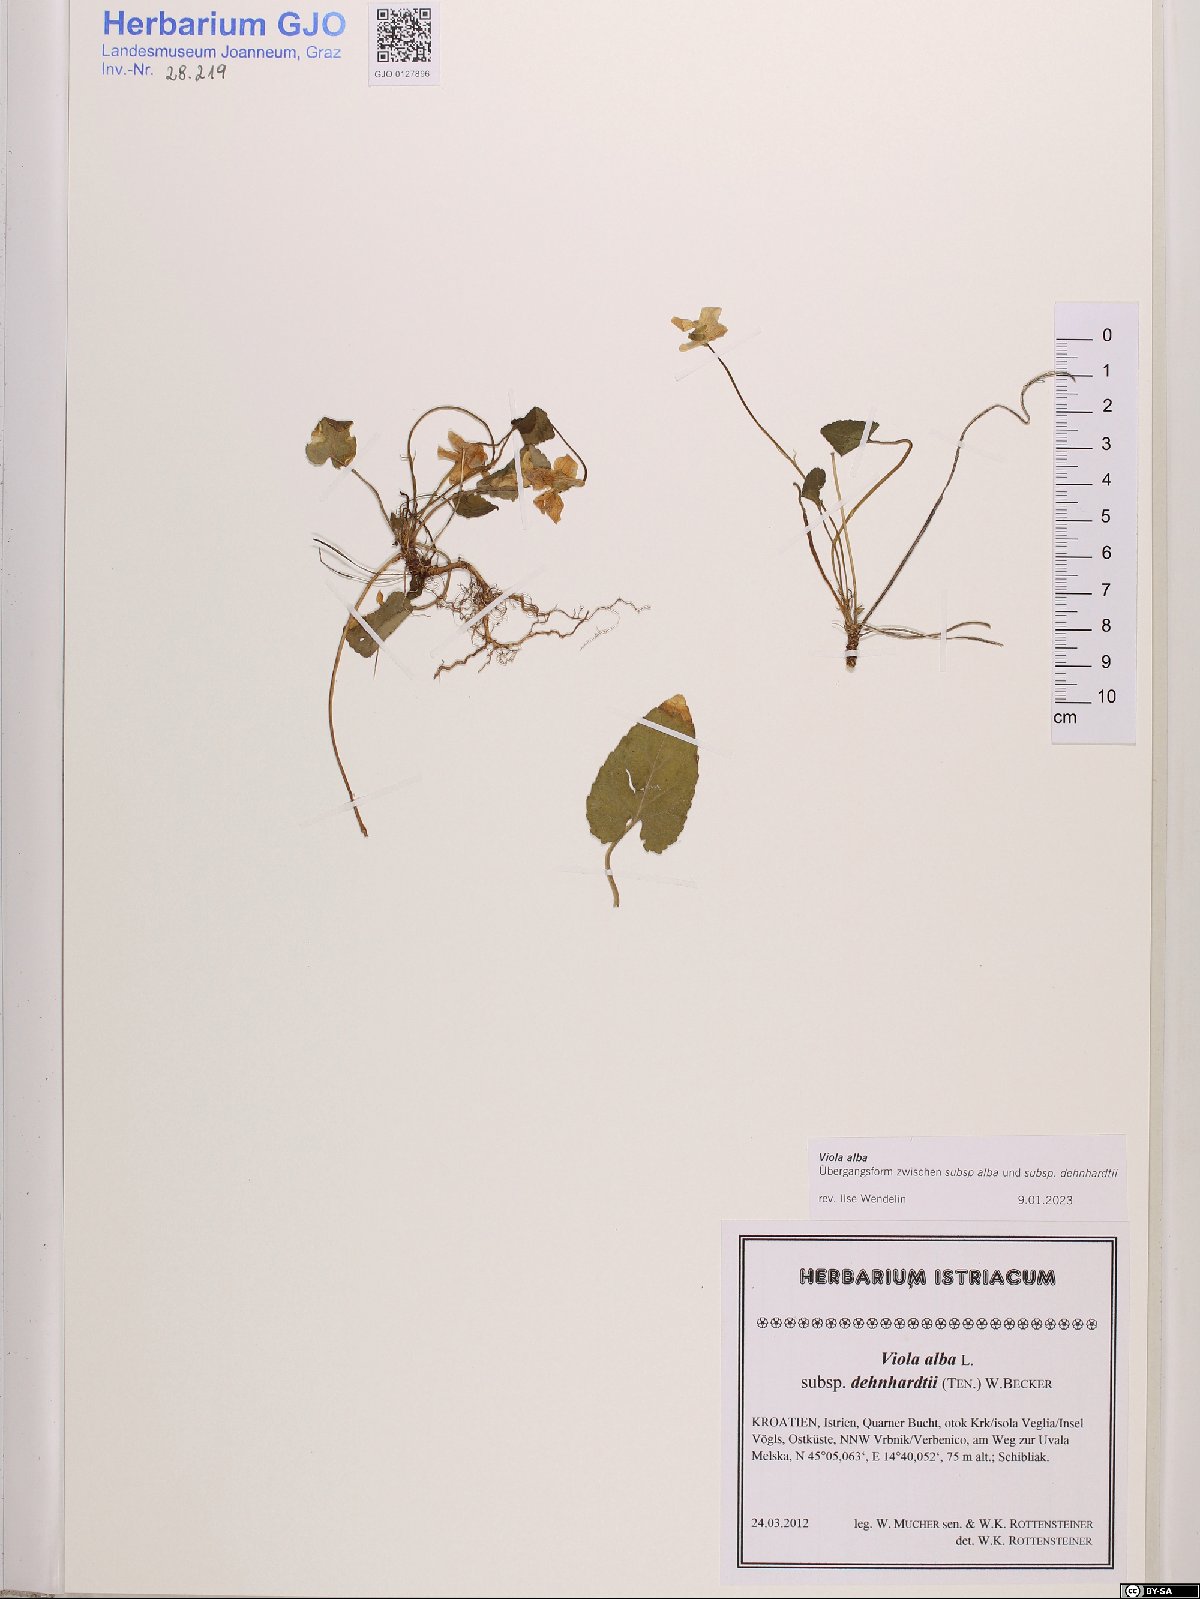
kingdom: Plantae
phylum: Tracheophyta
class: Magnoliopsida
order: Malpighiales
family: Violaceae
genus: Viola
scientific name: Viola alba
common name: White violet
